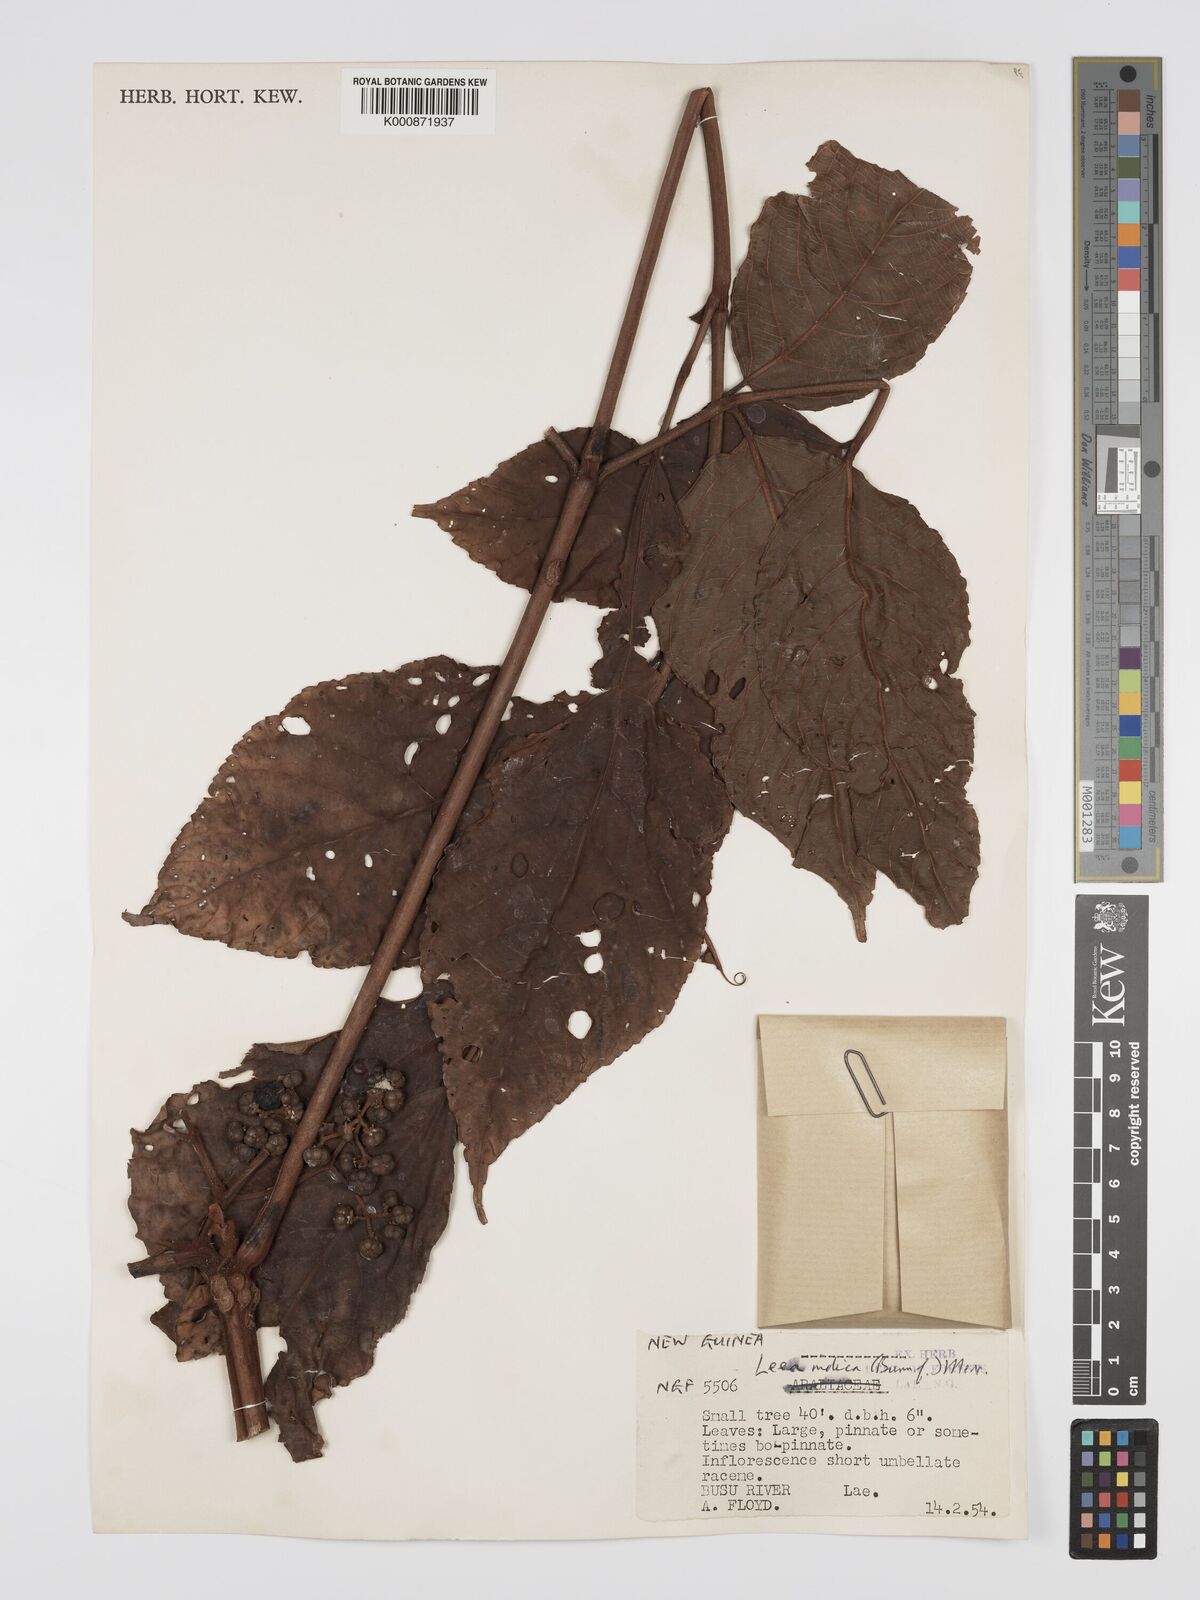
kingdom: Plantae
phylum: Tracheophyta
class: Magnoliopsida
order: Vitales
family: Vitaceae
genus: Leea
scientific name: Leea indica
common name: Bandicoot-berry
